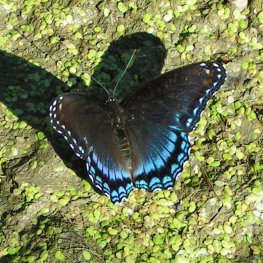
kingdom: Animalia
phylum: Arthropoda
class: Insecta
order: Lepidoptera
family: Nymphalidae
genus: Limenitis
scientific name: Limenitis arthemis
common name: Red-spotted Admiral
